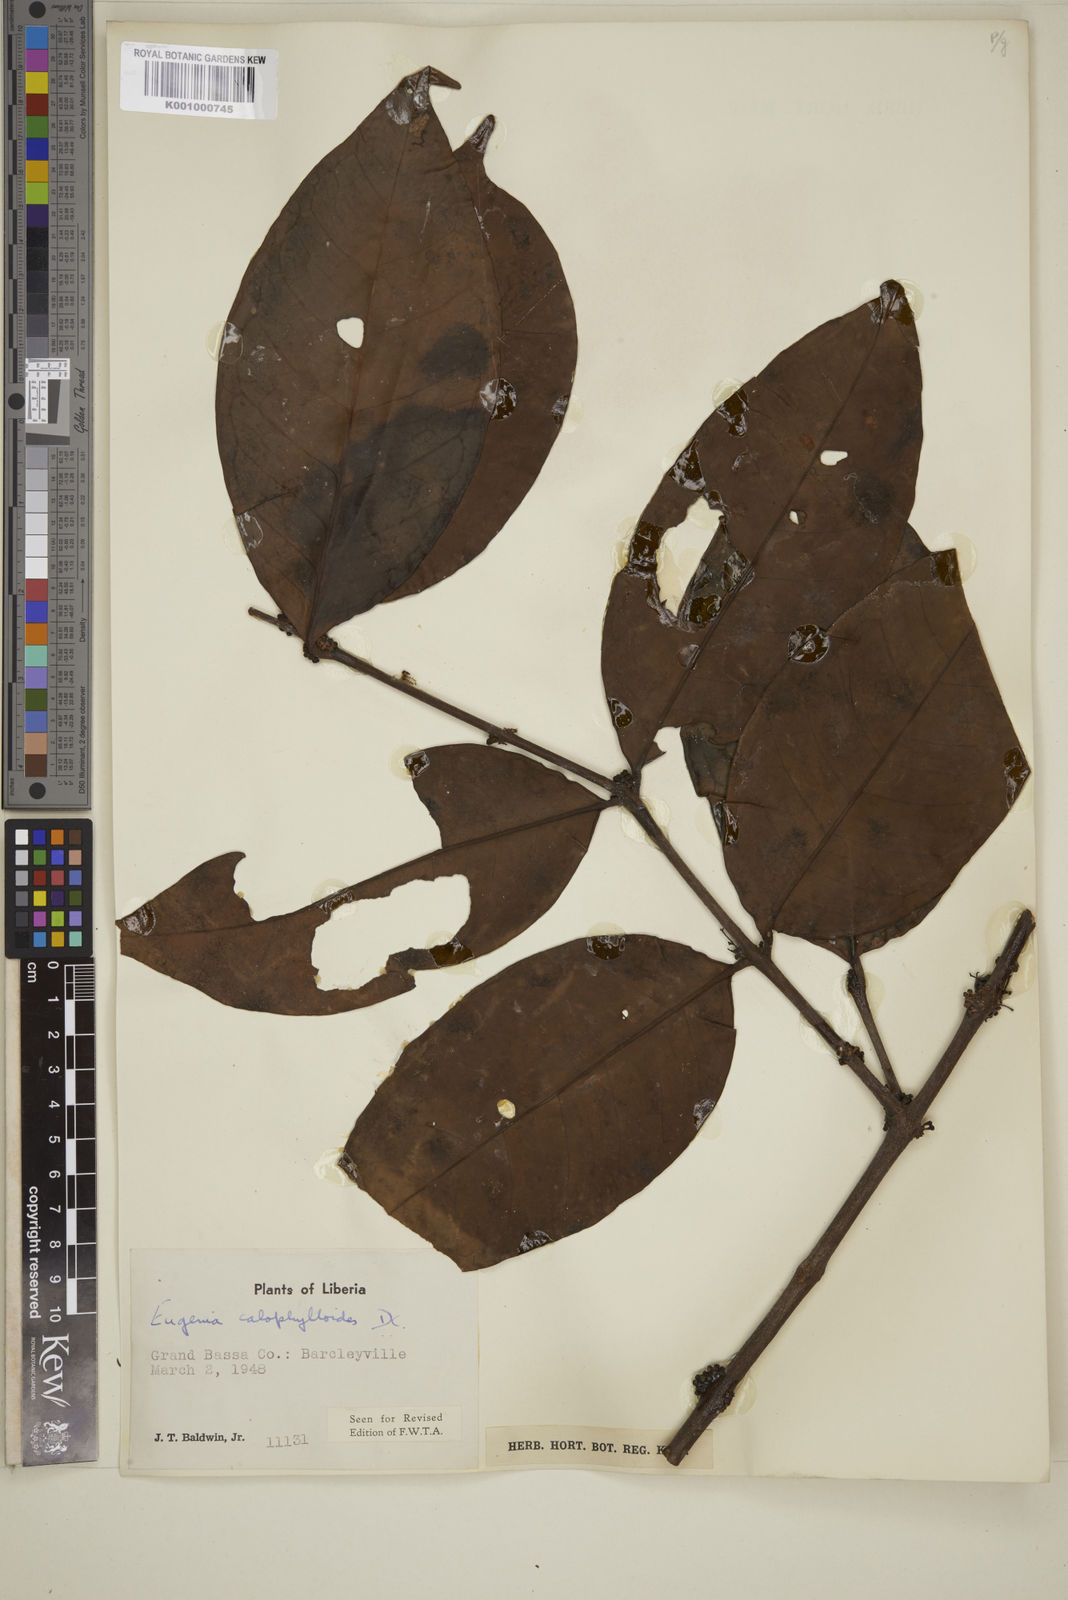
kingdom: Plantae
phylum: Tracheophyta
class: Magnoliopsida
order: Myrtales
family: Myrtaceae
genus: Eugenia
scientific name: Eugenia calophylloides
